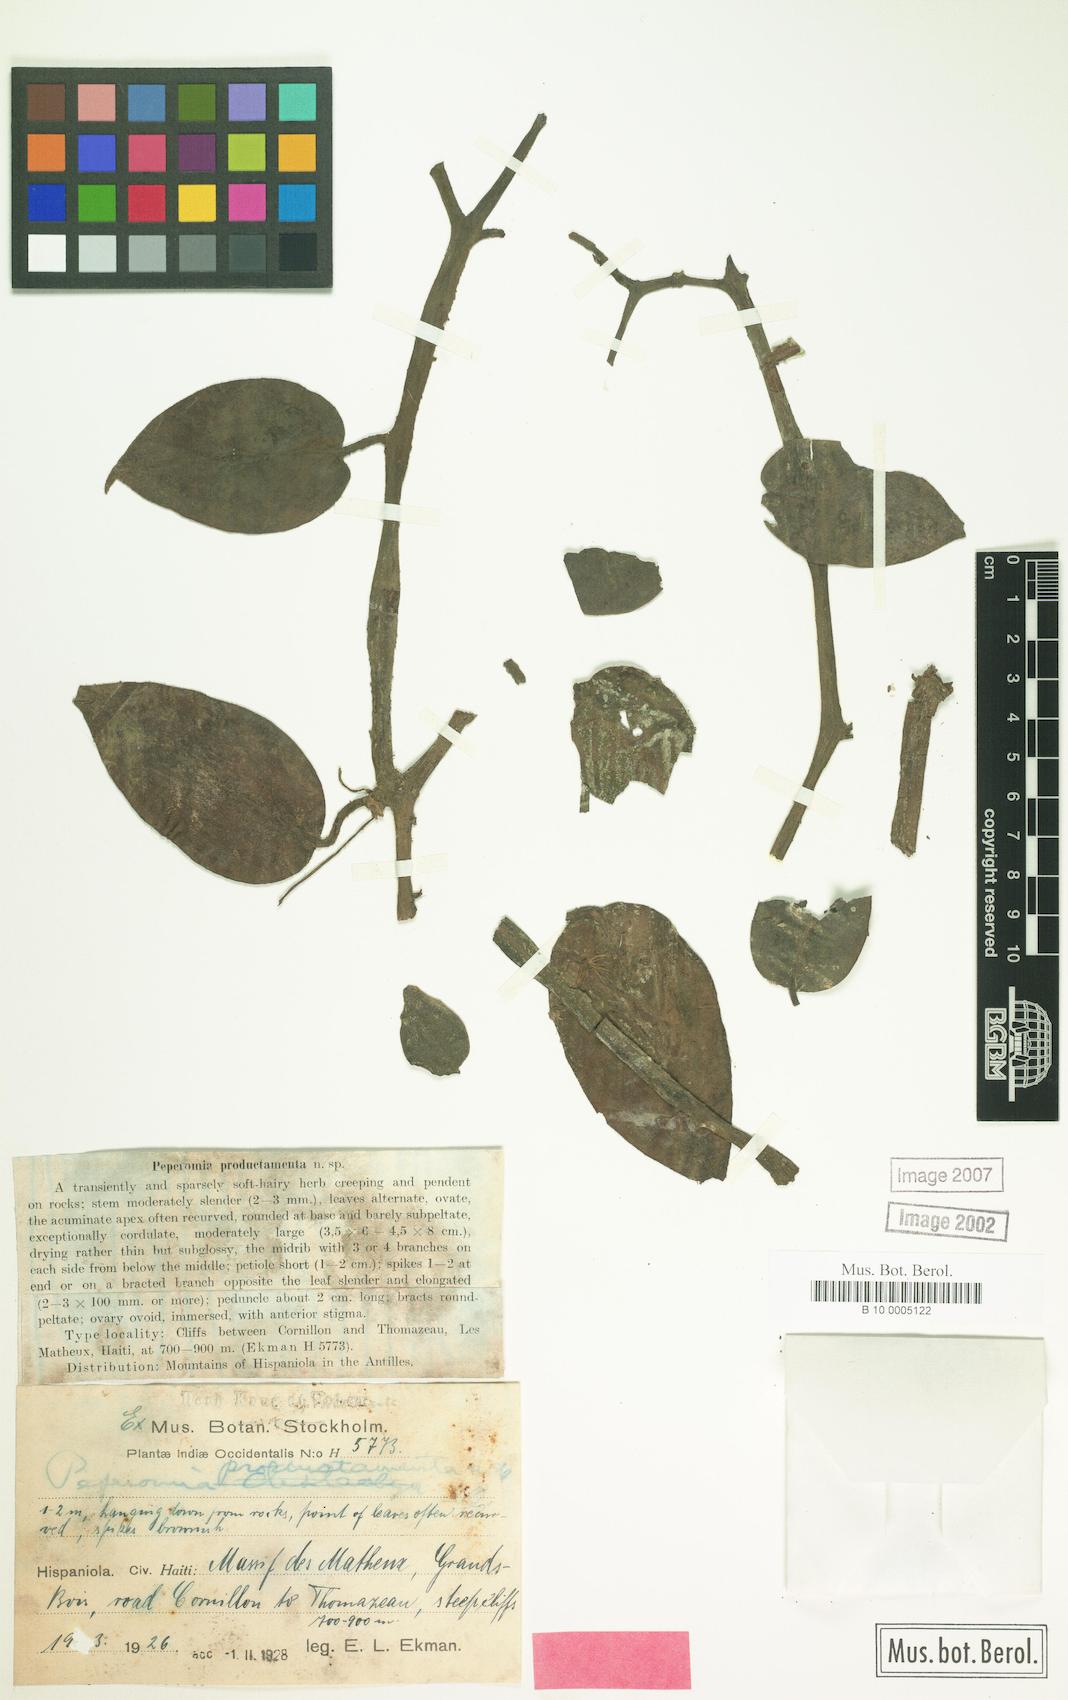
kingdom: Plantae
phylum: Tracheophyta
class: Magnoliopsida
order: Piperales
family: Piperaceae
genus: Peperomia
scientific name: Peperomia productamenta
